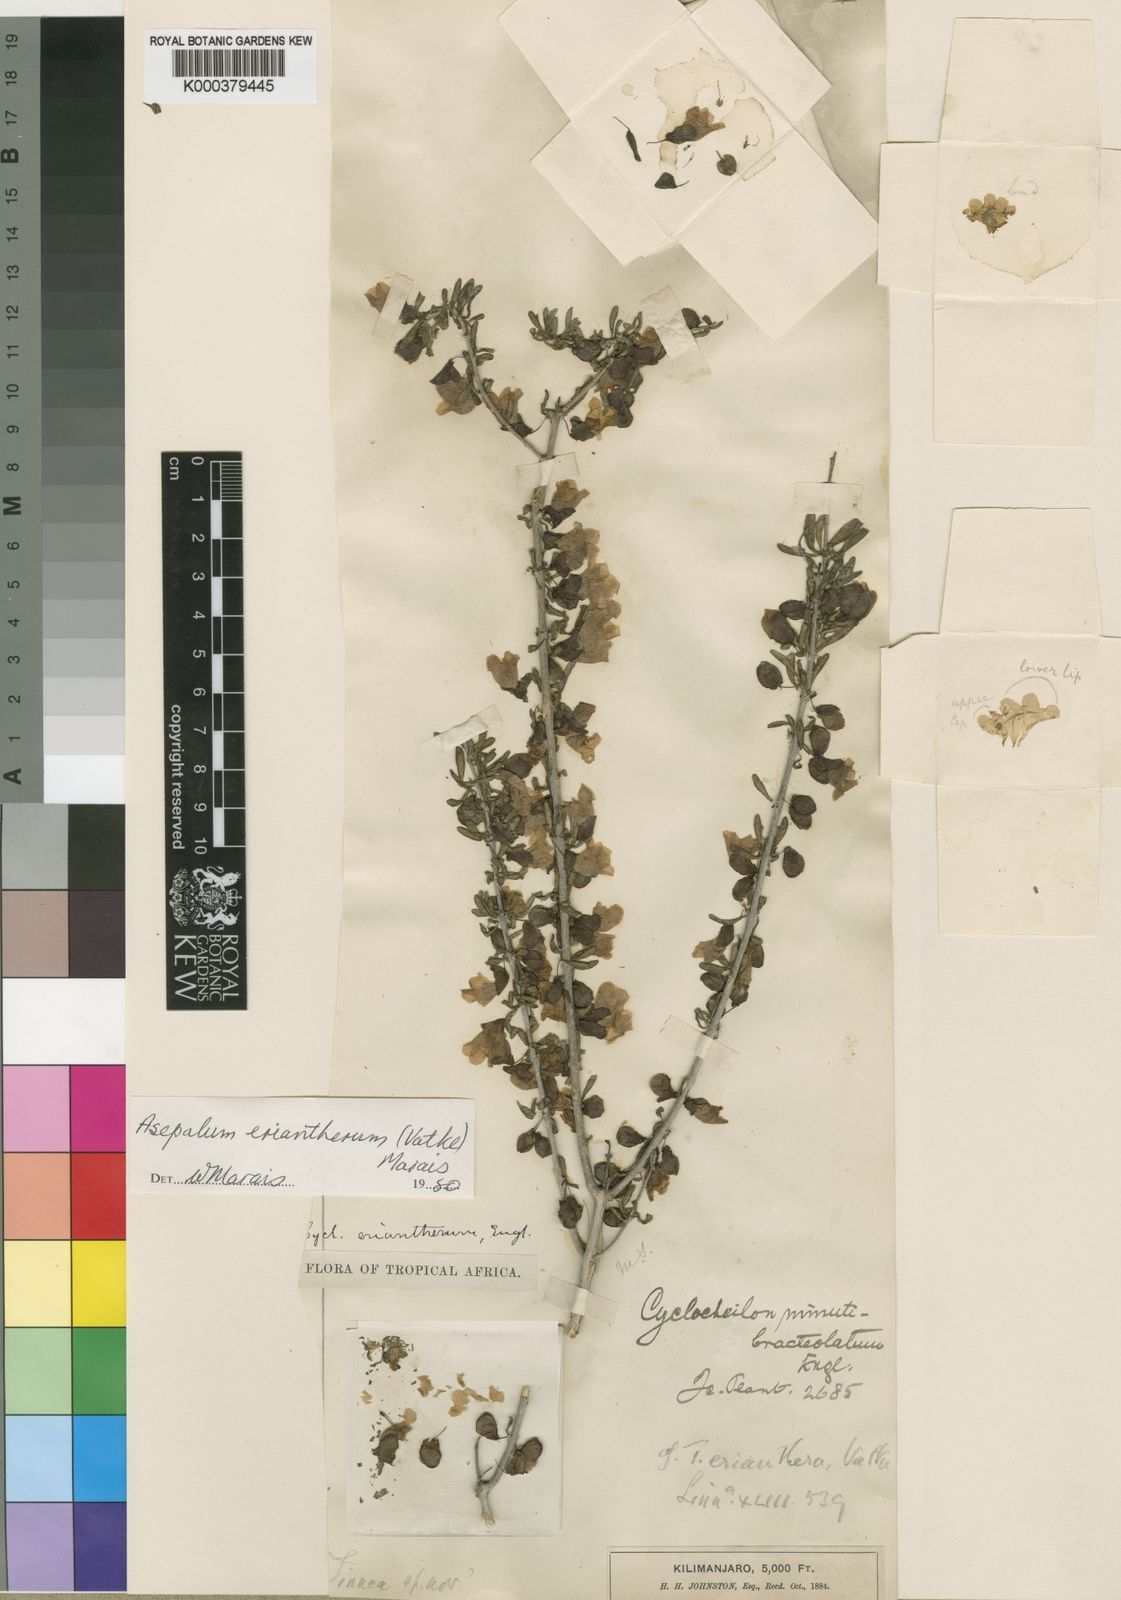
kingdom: Plantae
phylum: Tracheophyta
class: Magnoliopsida
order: Lamiales
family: Orobanchaceae
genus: Asepalum
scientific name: Asepalum eriantherum
